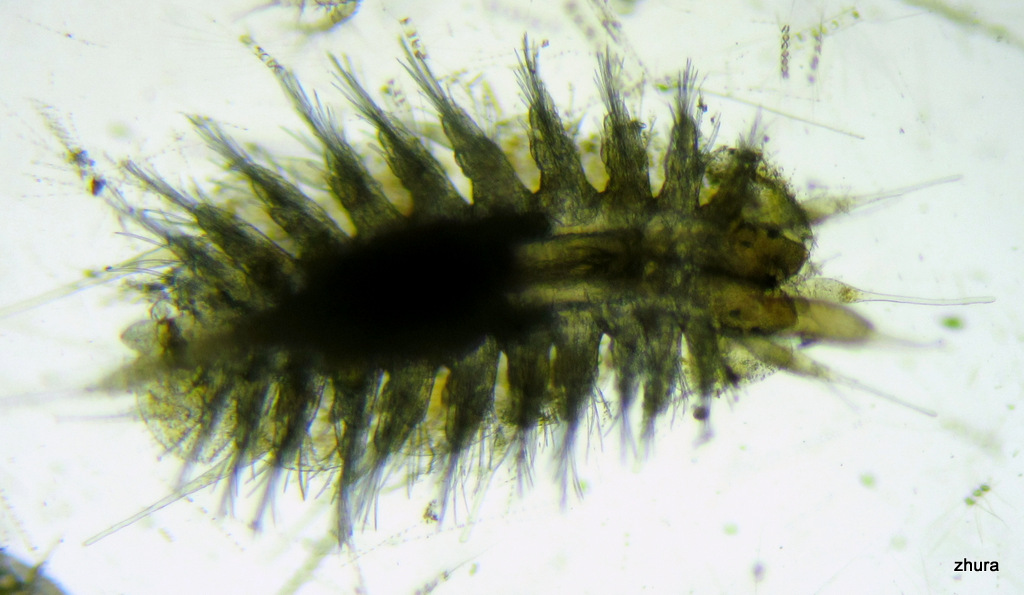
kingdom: Animalia
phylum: Annelida
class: Polychaeta
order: Phyllodocida
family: Polynoidae
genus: Lepidonotus
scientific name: Lepidonotus squamatus
